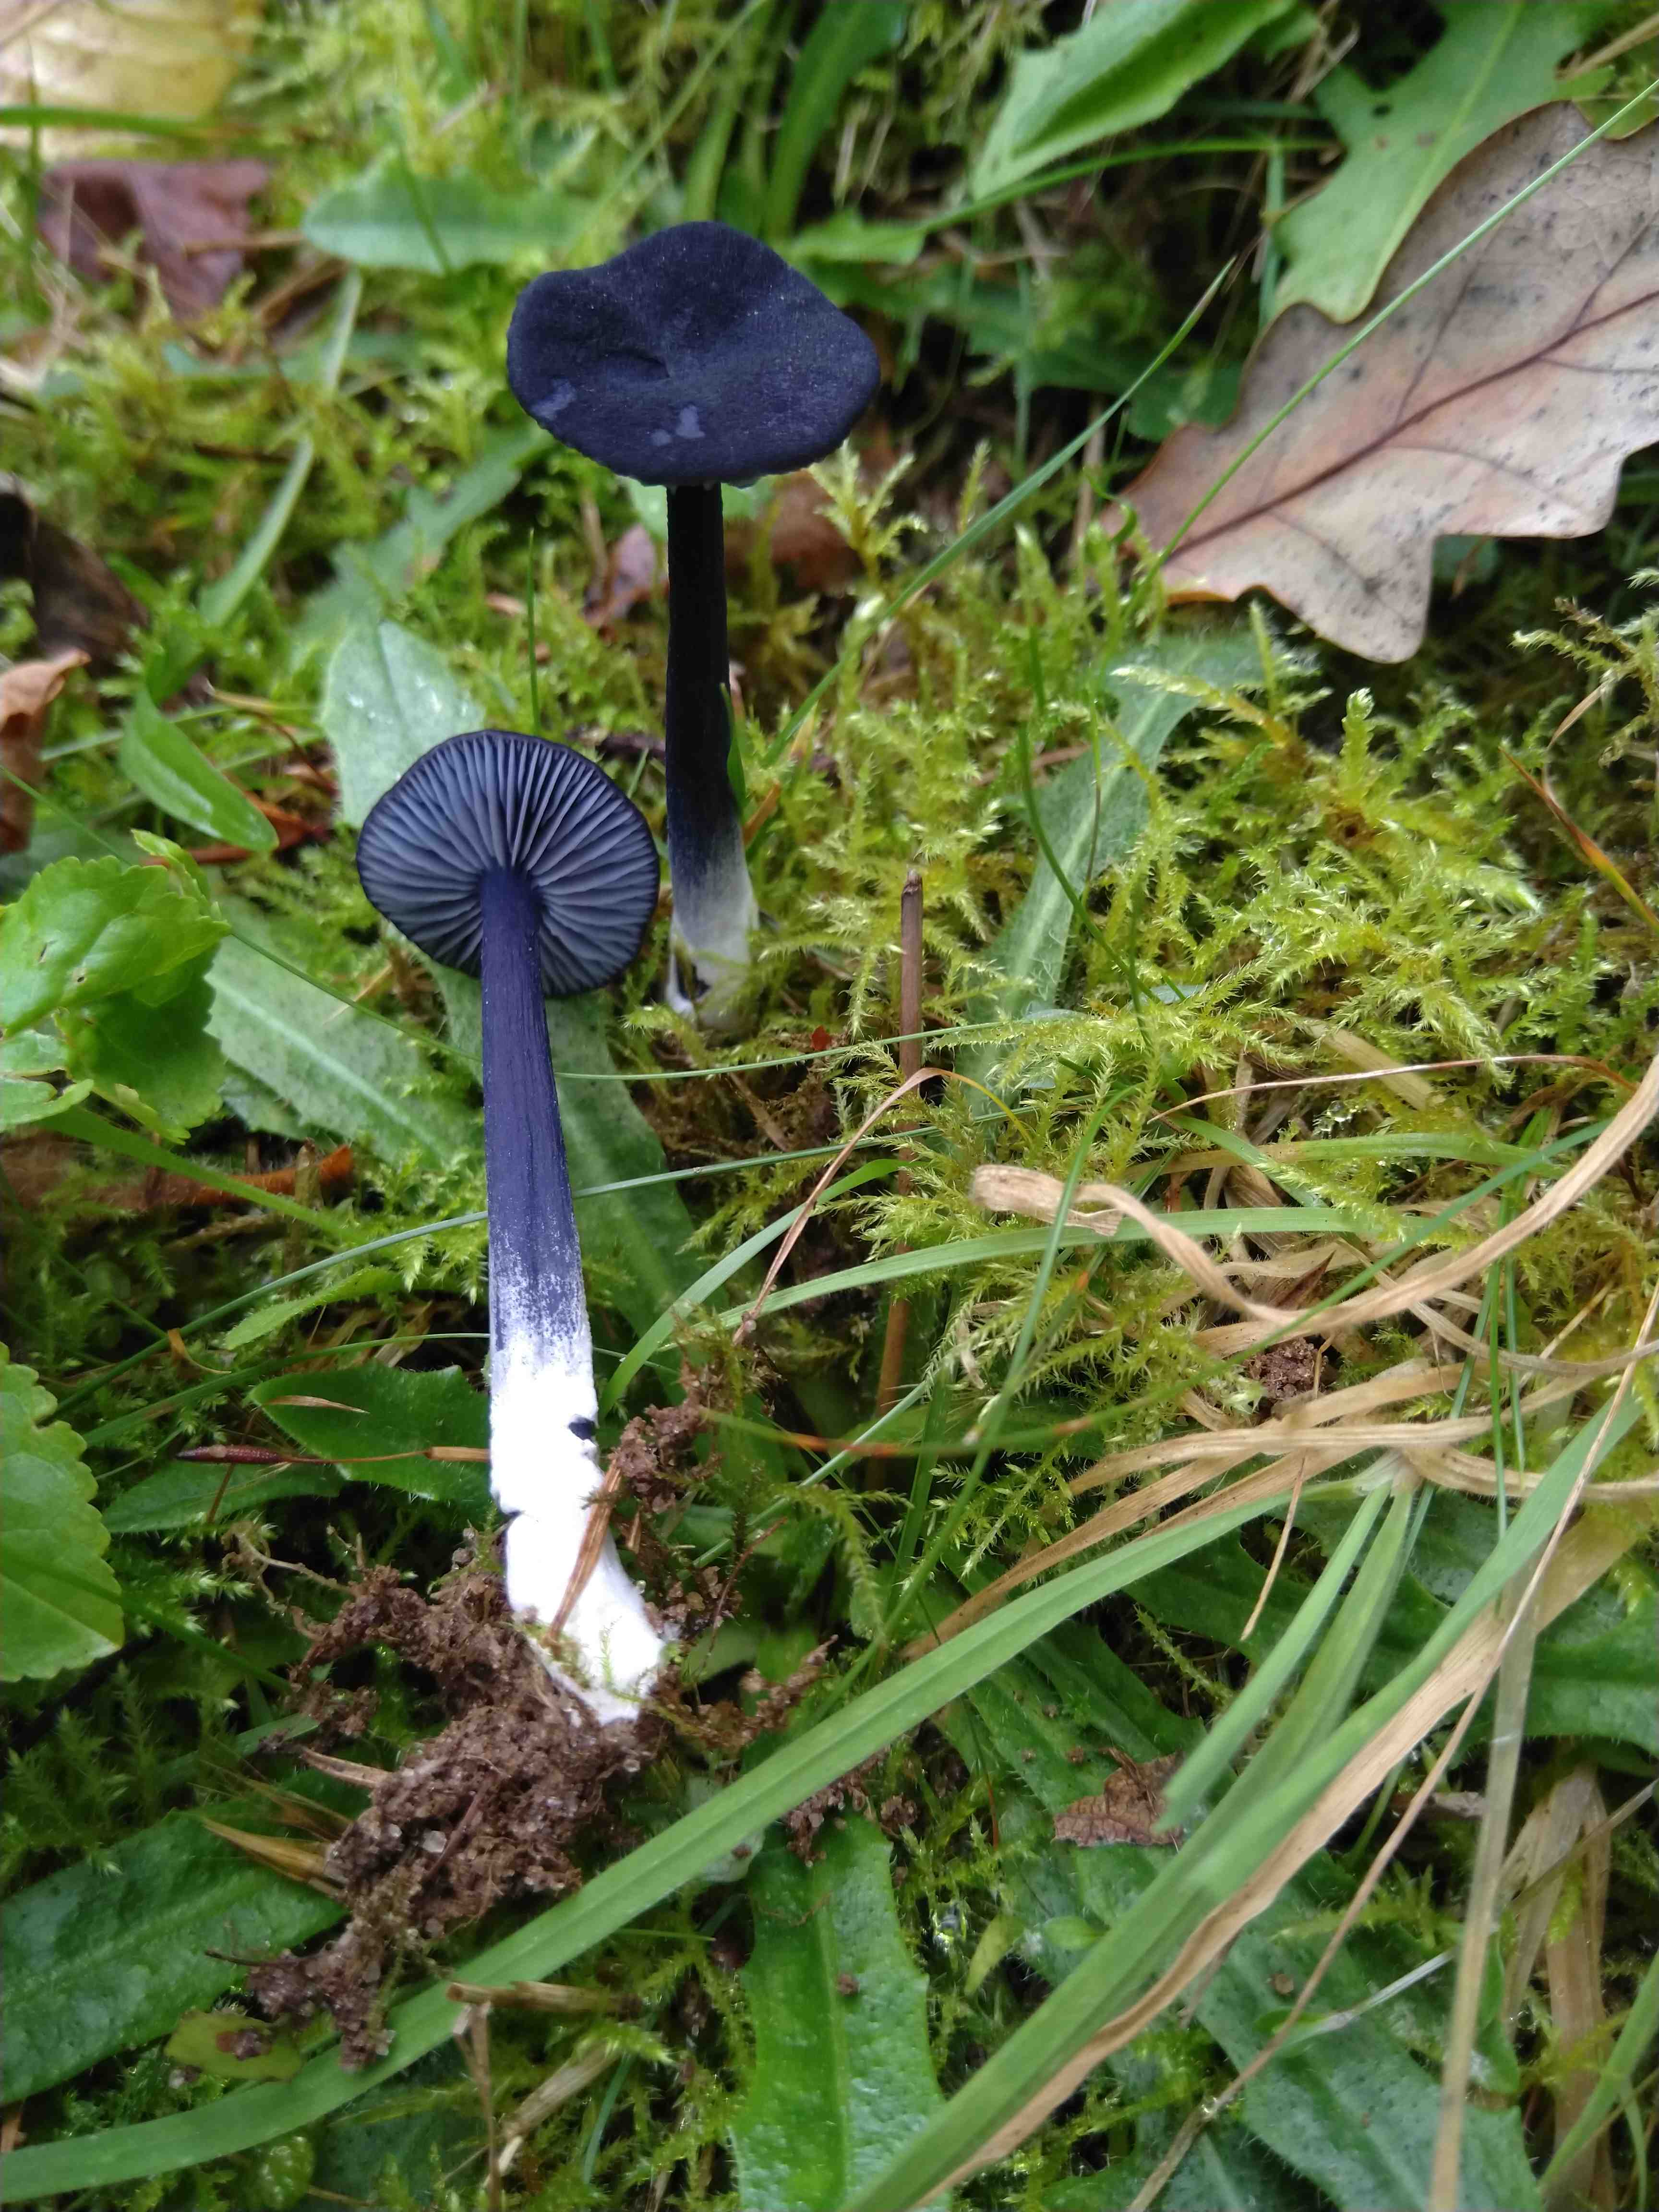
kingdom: Fungi
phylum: Basidiomycota
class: Agaricomycetes
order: Agaricales
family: Entolomataceae
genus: Entoloma
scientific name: Entoloma chalybeum
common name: blåbladet rødblad
